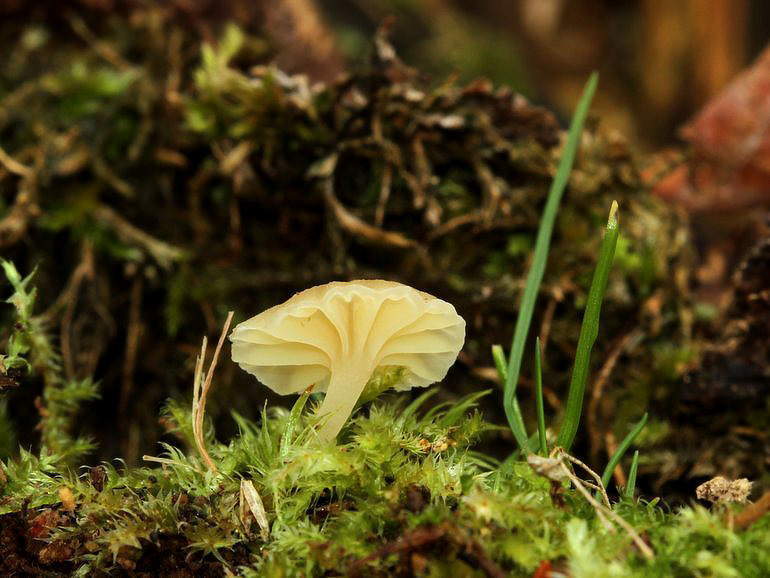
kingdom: Fungi
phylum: Basidiomycota
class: Agaricomycetes
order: Agaricales
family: Hygrophoraceae
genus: Chrysomphalina
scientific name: Chrysomphalina grossula
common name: stød-gyldenblad
